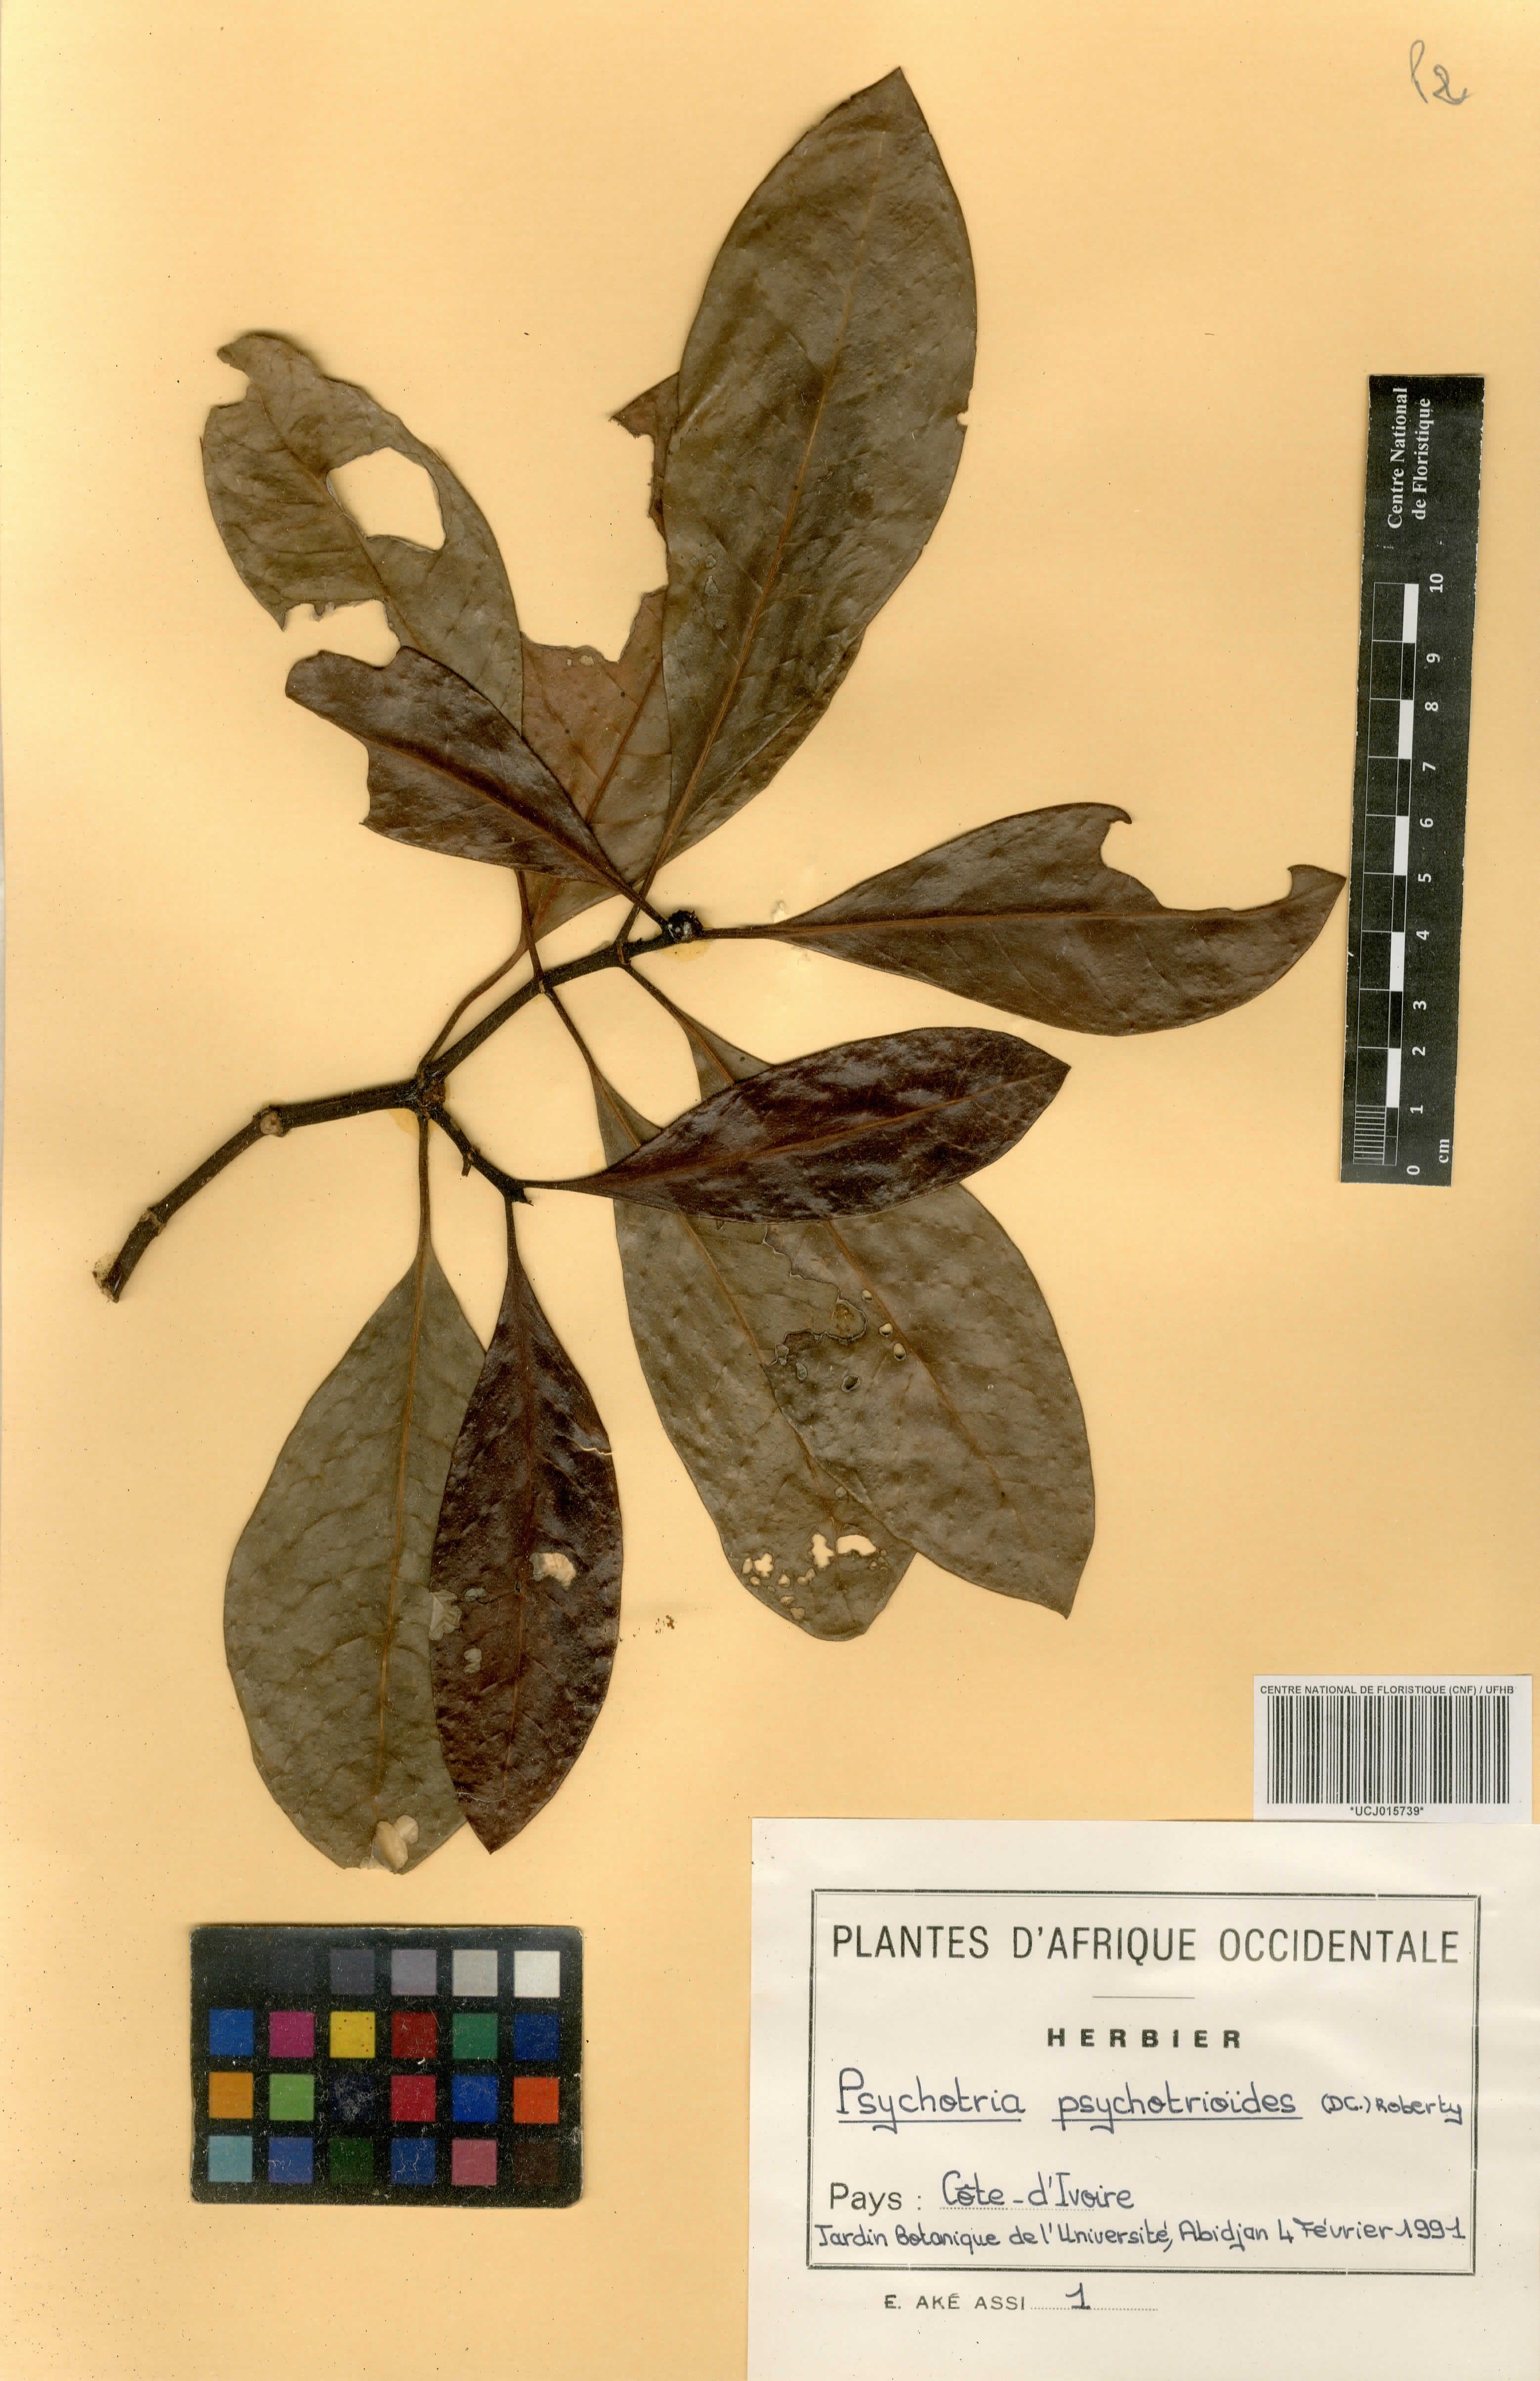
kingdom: Plantae
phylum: Tracheophyta
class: Magnoliopsida
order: Gentianales
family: Rubiaceae
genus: Psychotria
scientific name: Psychotria psychotrioides
